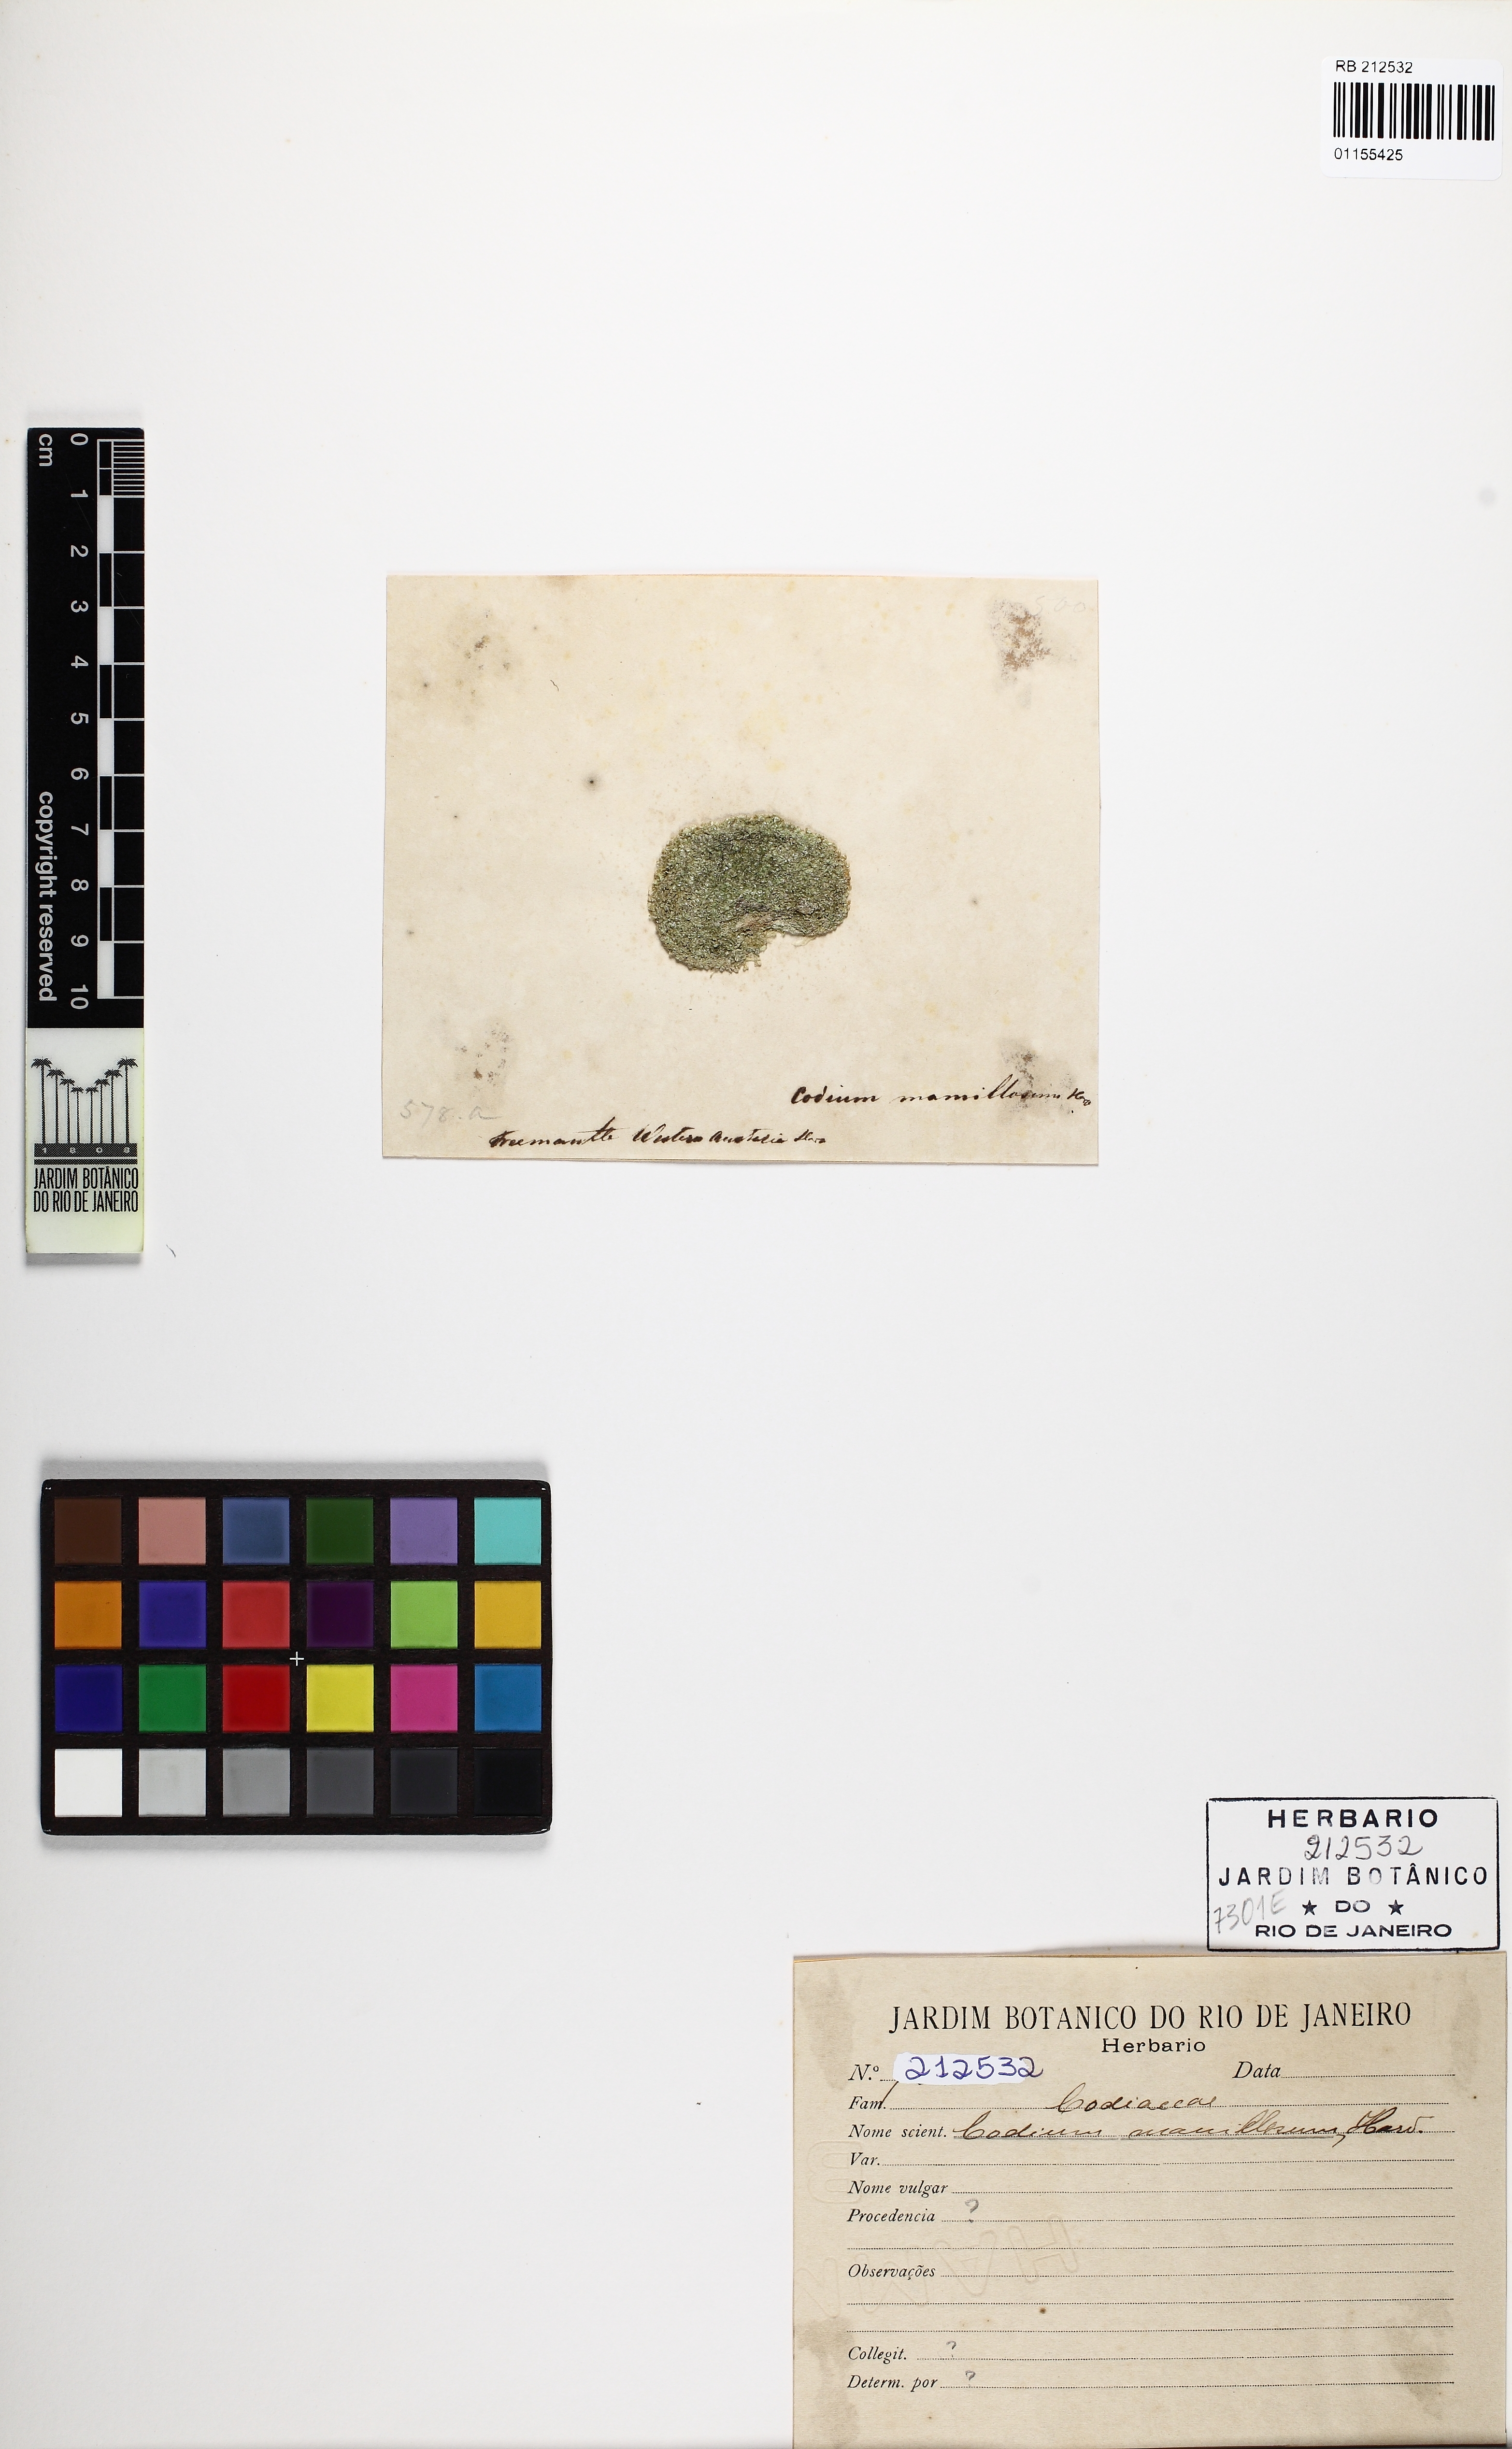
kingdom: Plantae
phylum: Chlorophyta
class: Ulvophyceae
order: Bryopsidales
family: Codiaceae
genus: Codium
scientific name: Codium mamillosum
